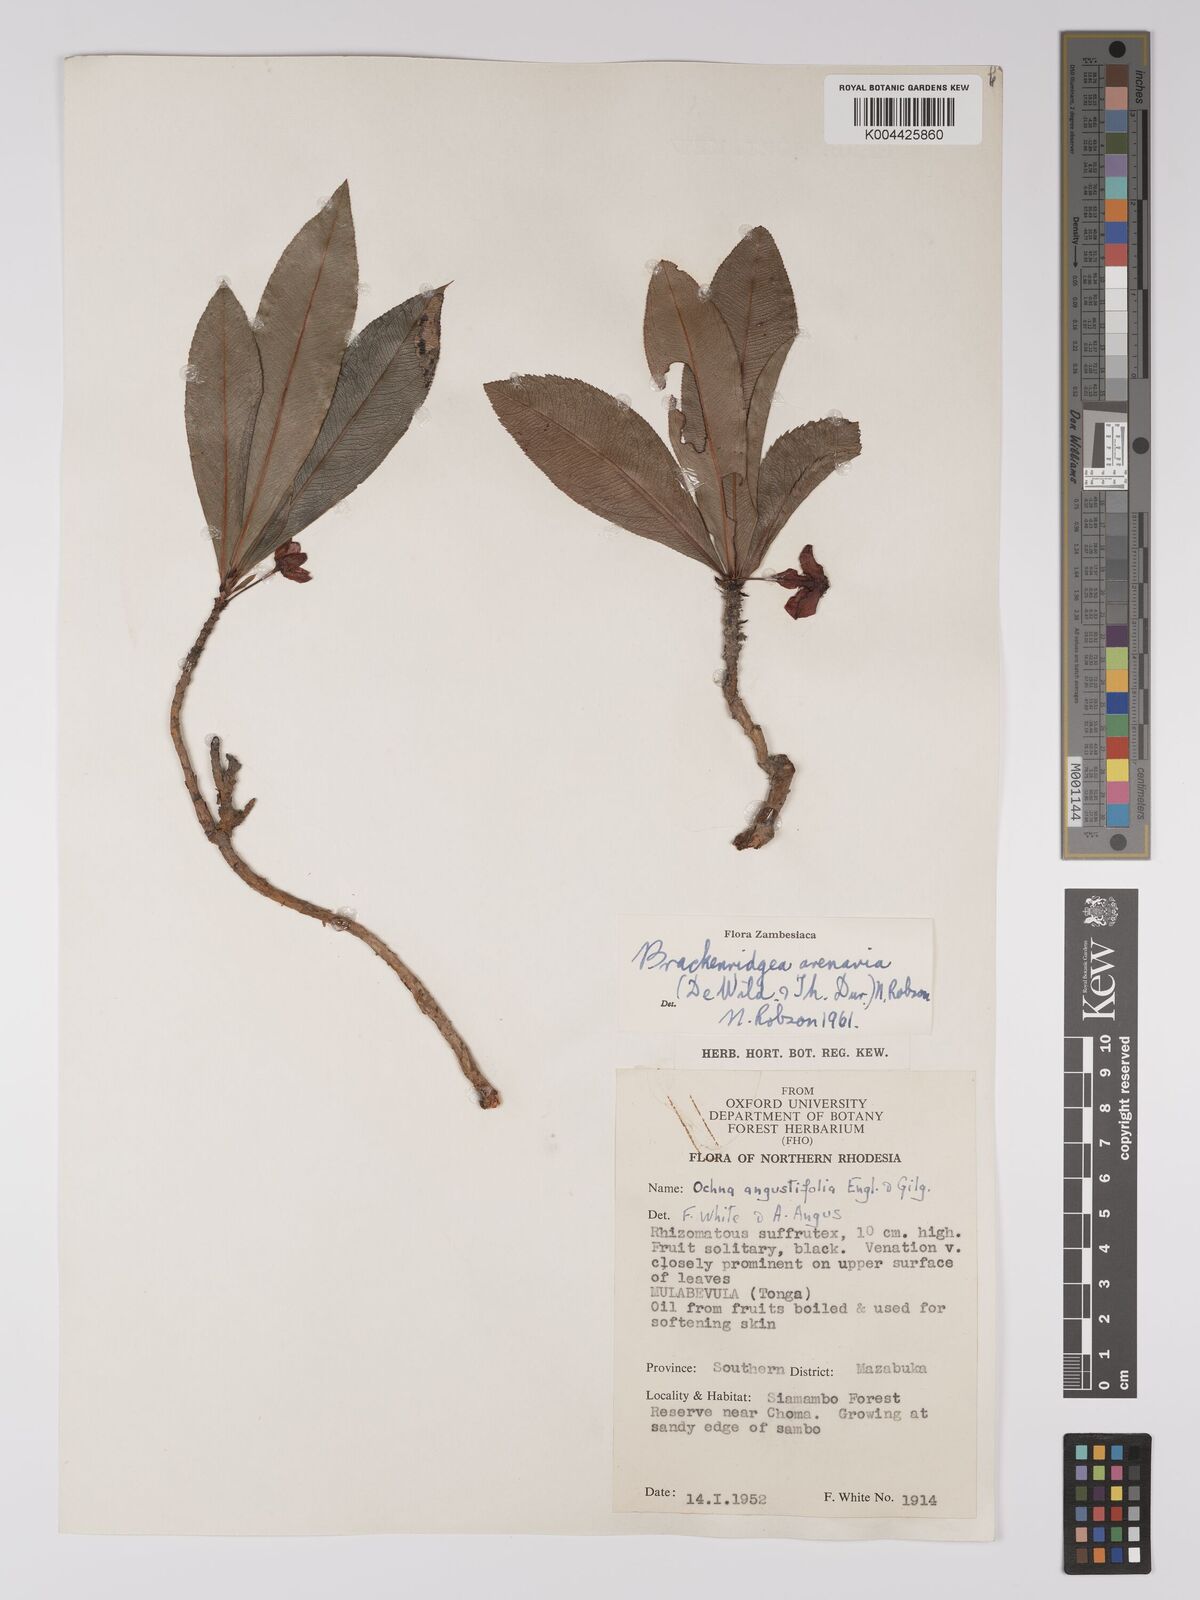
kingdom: Plantae
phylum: Tracheophyta
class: Magnoliopsida
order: Malpighiales
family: Ochnaceae
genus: Ochna
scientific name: Ochna arenaria
